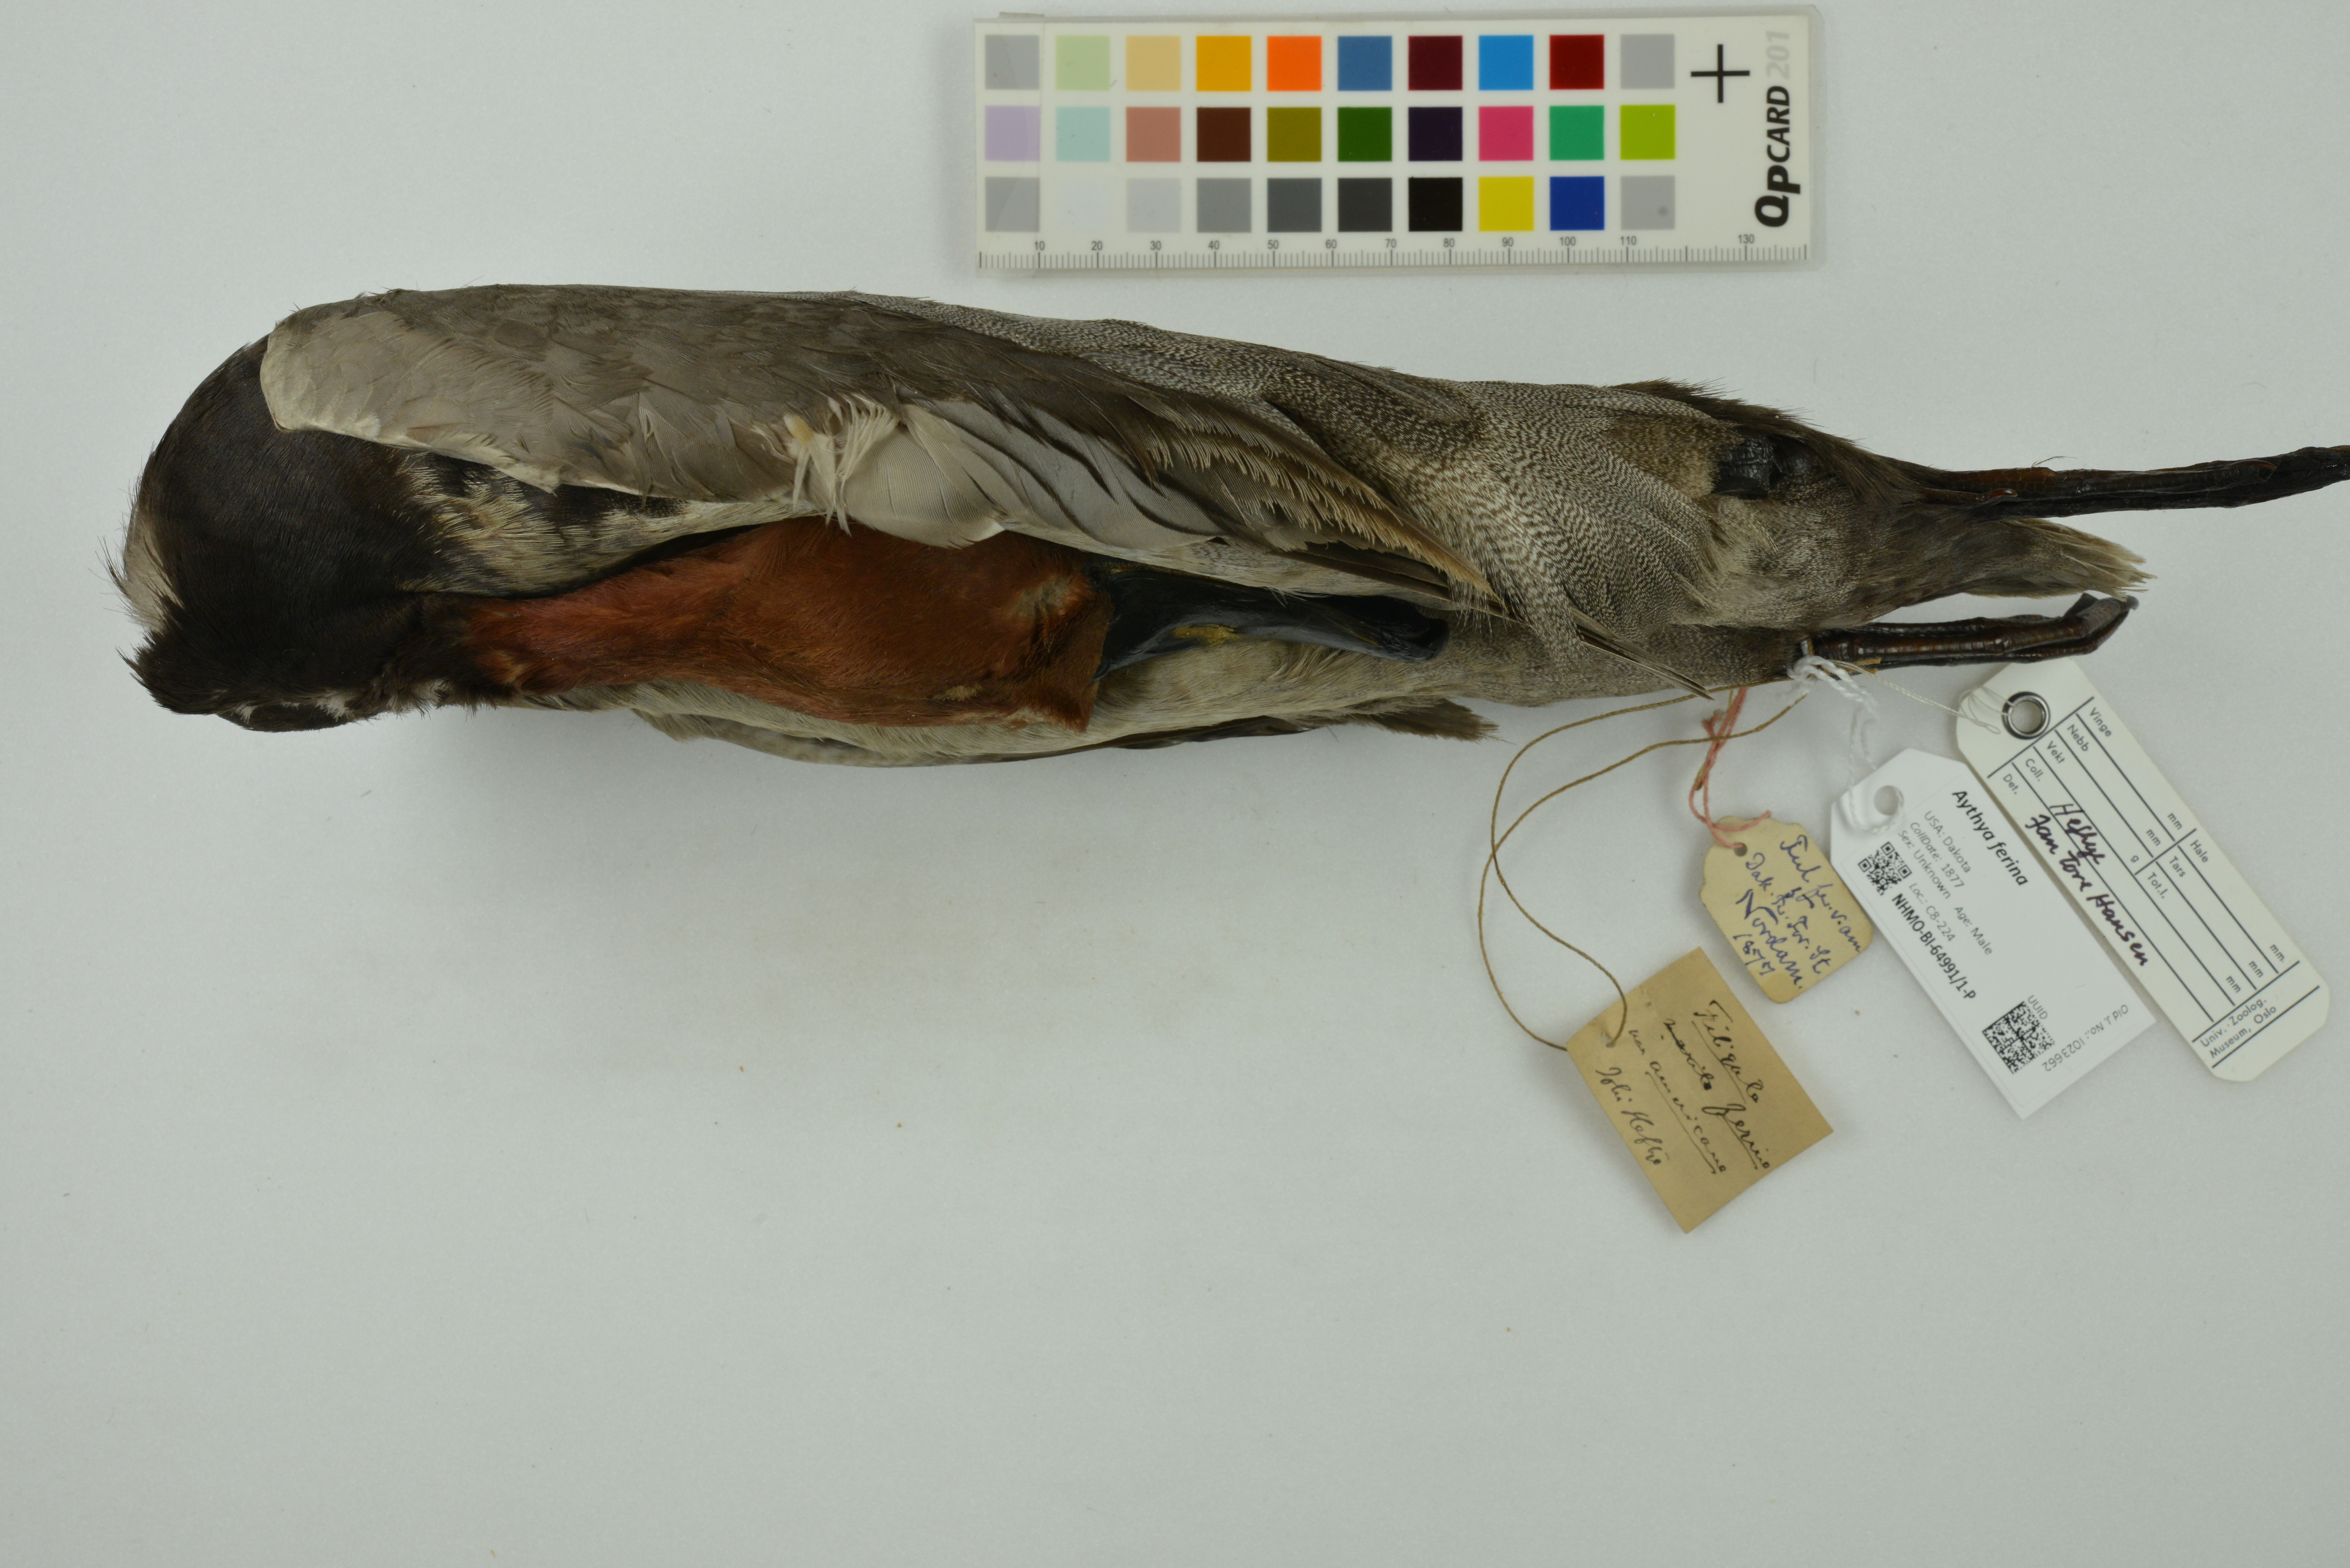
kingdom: Animalia
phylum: Chordata
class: Aves
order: Anseriformes
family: Anatidae
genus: Aythya
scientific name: Aythya ferina
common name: Common pochard
